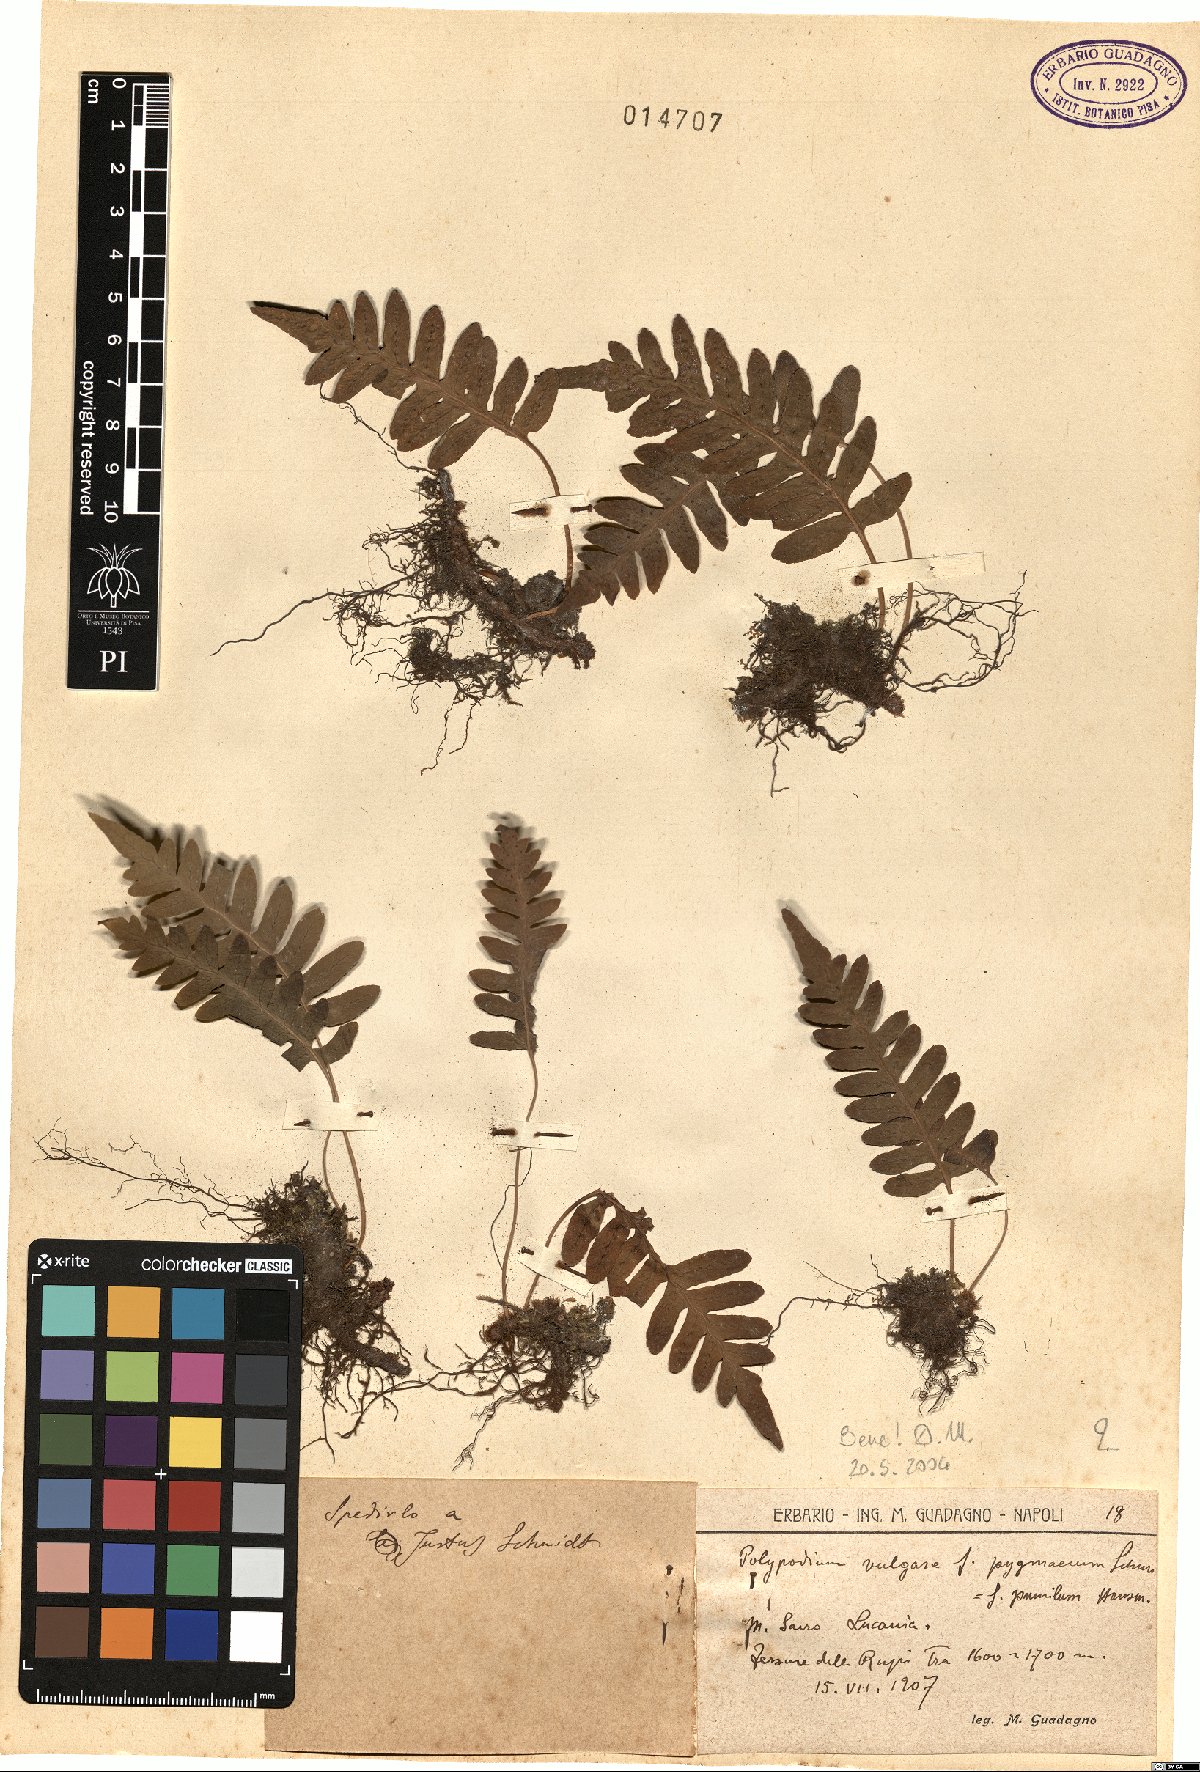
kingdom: Plantae
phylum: Tracheophyta
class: Polypodiopsida
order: Polypodiales
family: Polypodiaceae
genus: Polypodium
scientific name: Polypodium vulgare
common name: Common polypody
